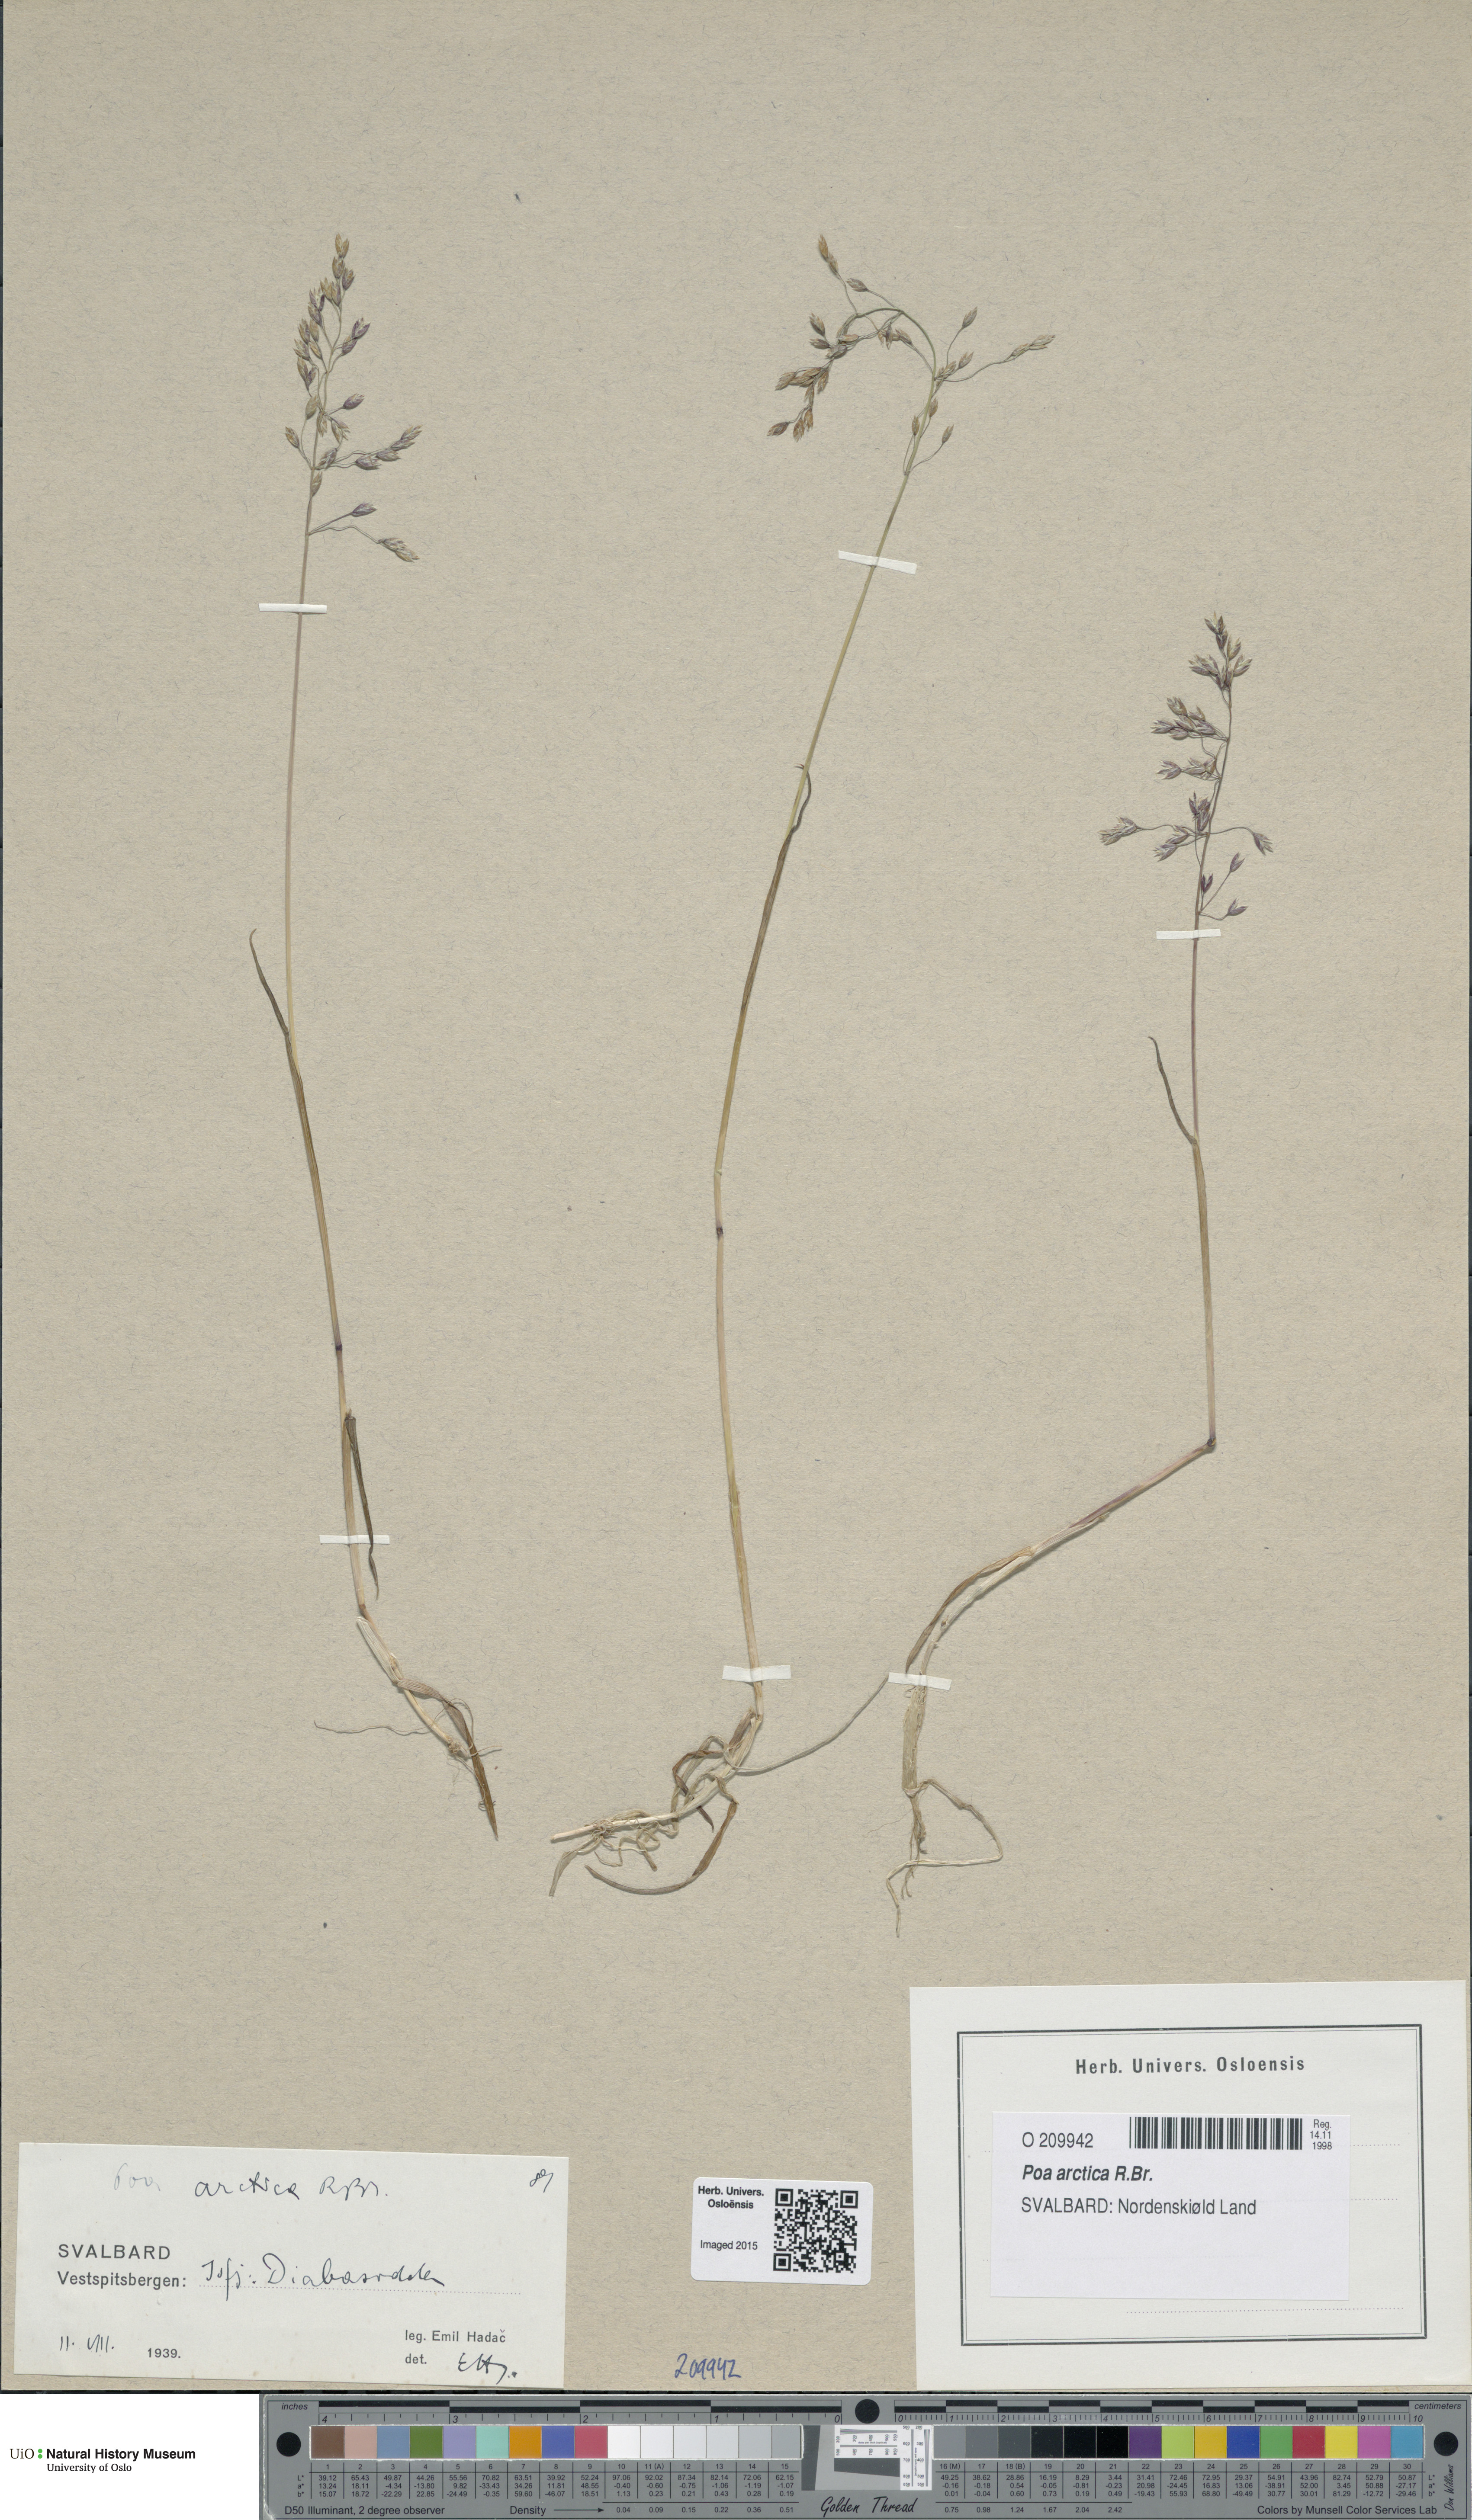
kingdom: Plantae
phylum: Tracheophyta
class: Liliopsida
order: Poales
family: Poaceae
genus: Poa
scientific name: Poa arctica
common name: Arctic bluegrass
